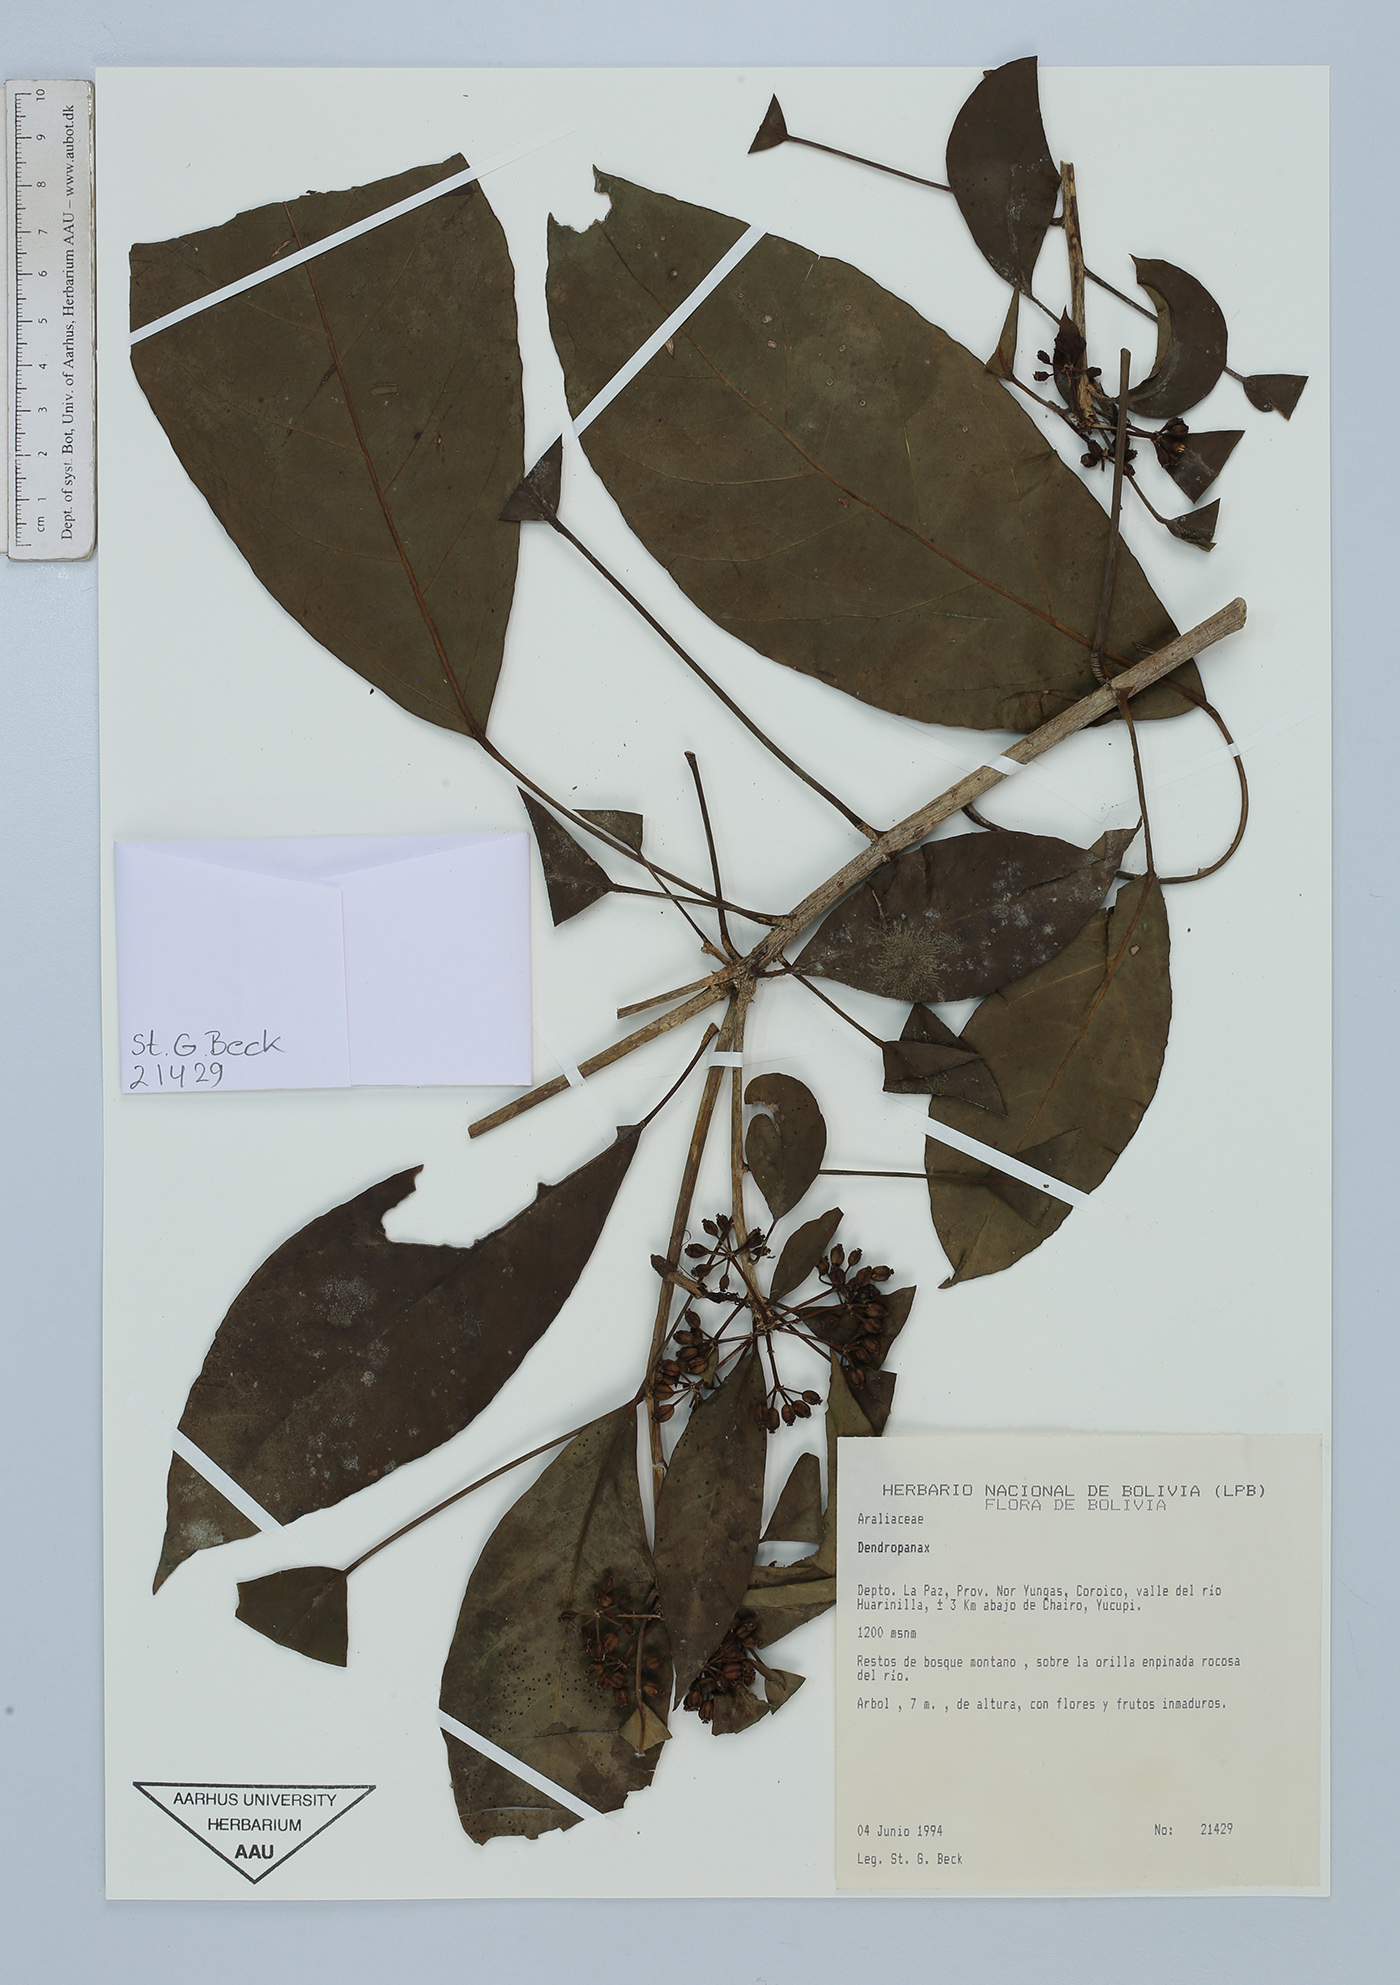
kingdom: Plantae
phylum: Tracheophyta
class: Magnoliopsida
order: Apiales
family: Araliaceae
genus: Dendropanax
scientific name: Dendropanax
